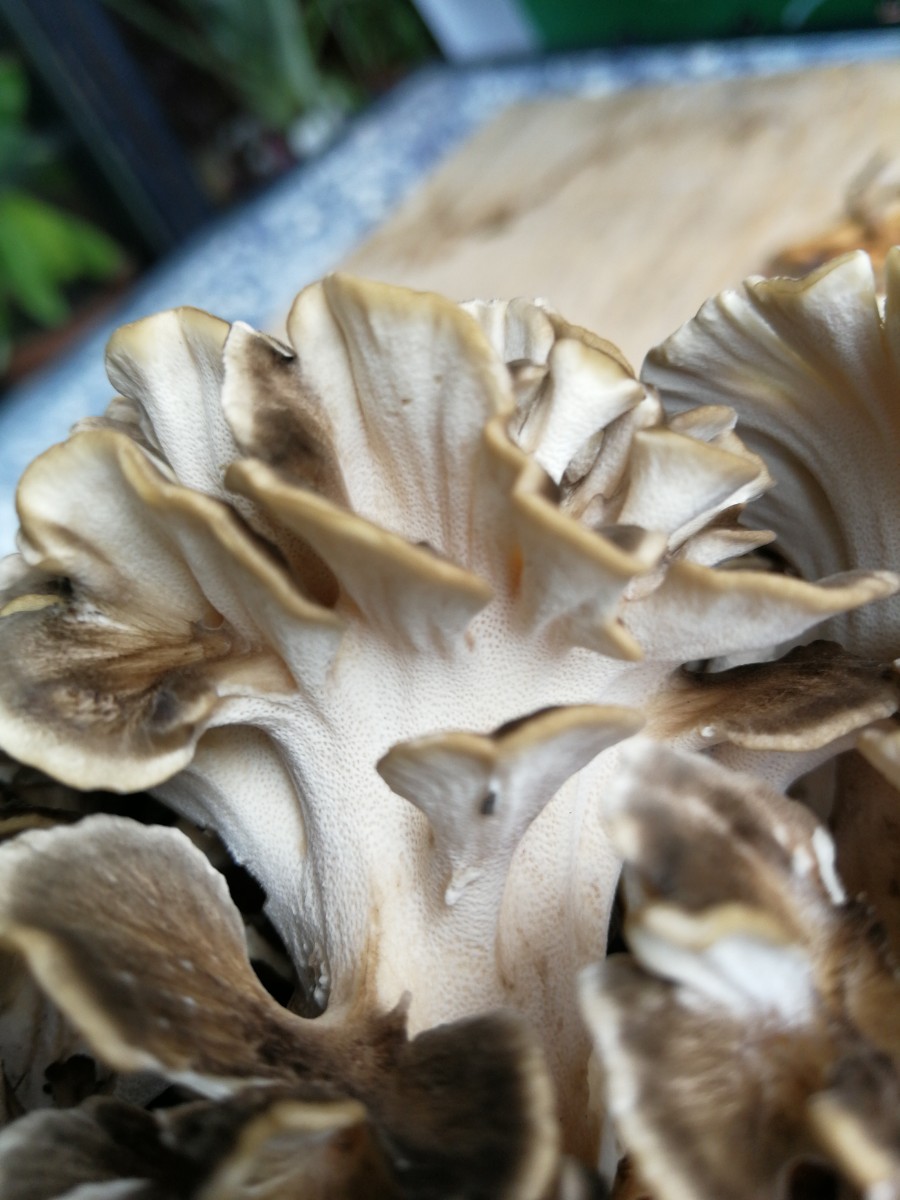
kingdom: Fungi
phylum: Basidiomycota
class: Agaricomycetes
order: Polyporales
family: Grifolaceae
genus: Grifola
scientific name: Grifola frondosa
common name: tueporesvamp
